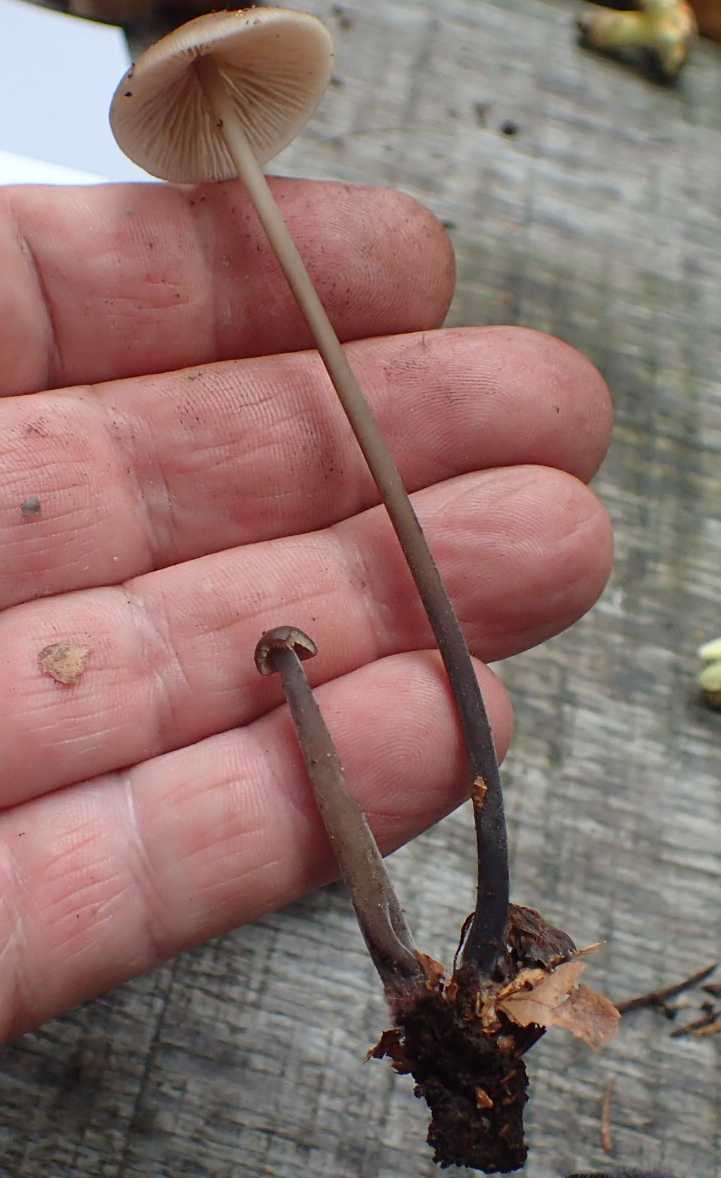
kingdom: Fungi
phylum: Basidiomycota
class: Agaricomycetes
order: Agaricales
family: Omphalotaceae
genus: Mycetinis
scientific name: Mycetinis alliaceus
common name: stor løghat
